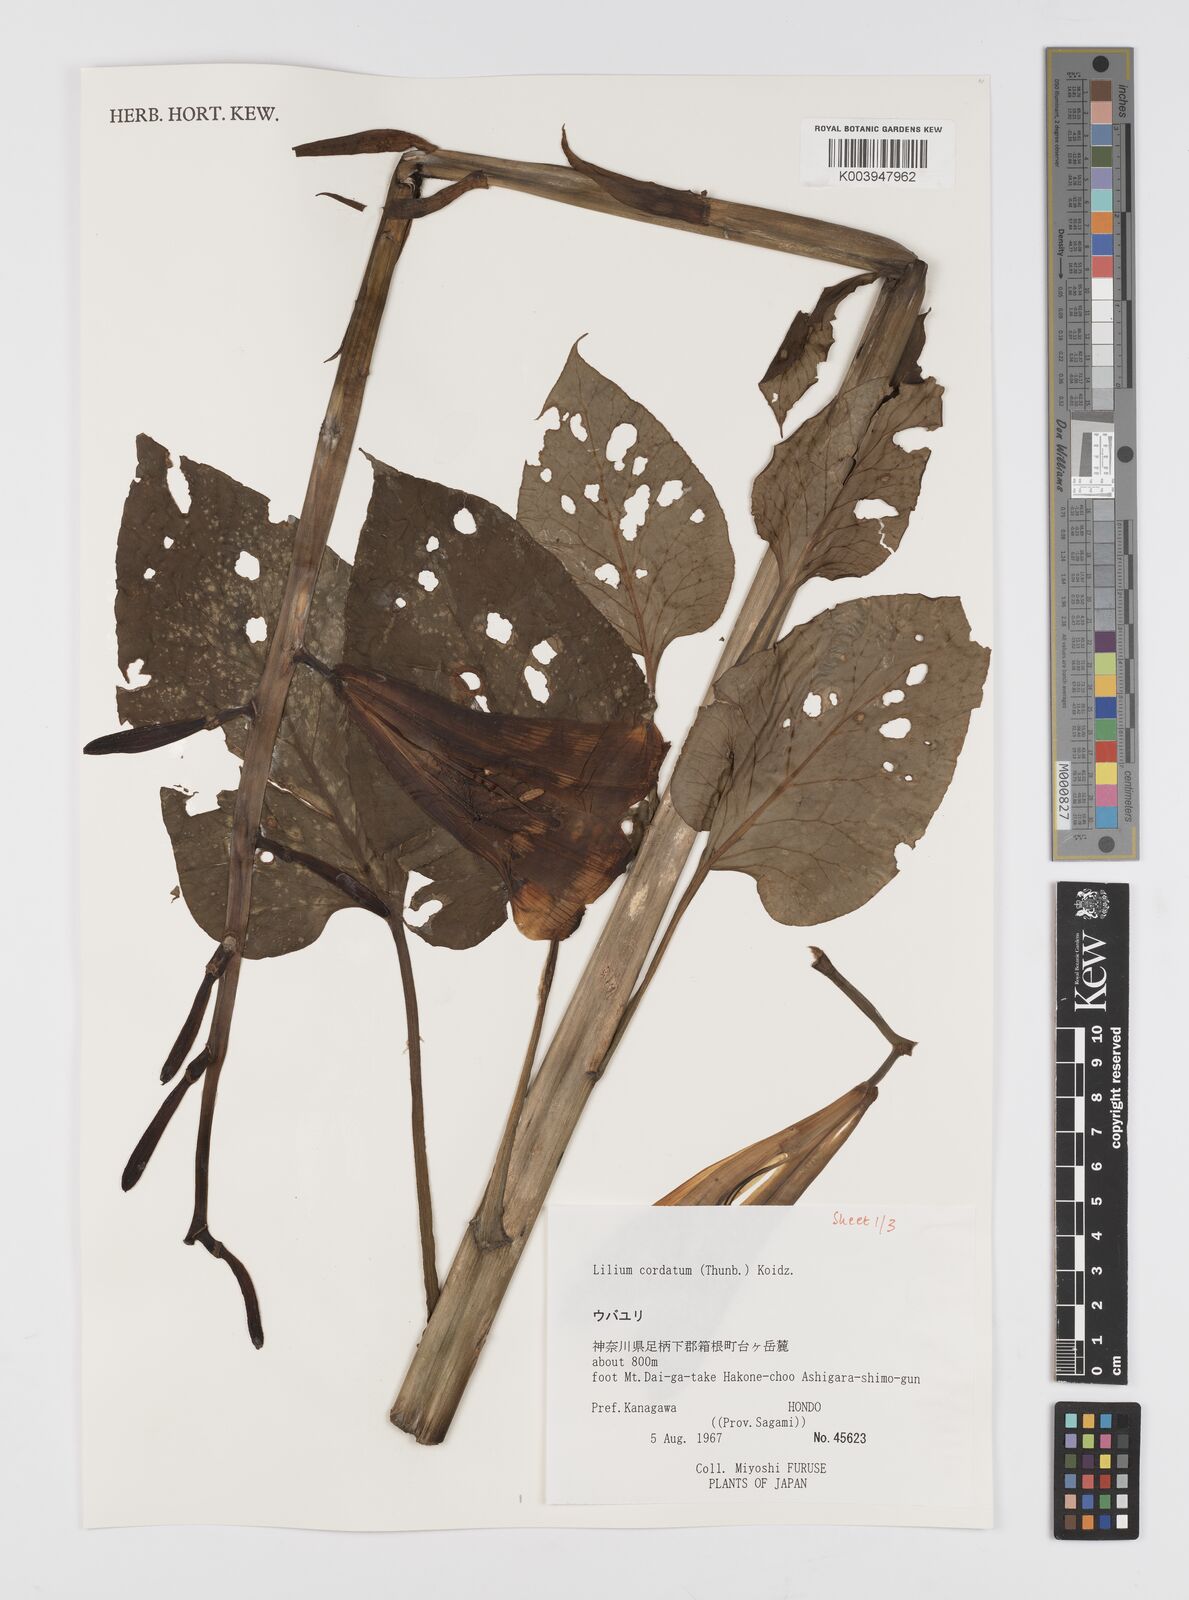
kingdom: Plantae
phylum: Tracheophyta
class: Liliopsida
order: Liliales
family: Liliaceae
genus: Cardiocrinum
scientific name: Cardiocrinum cordatum
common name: Lily
